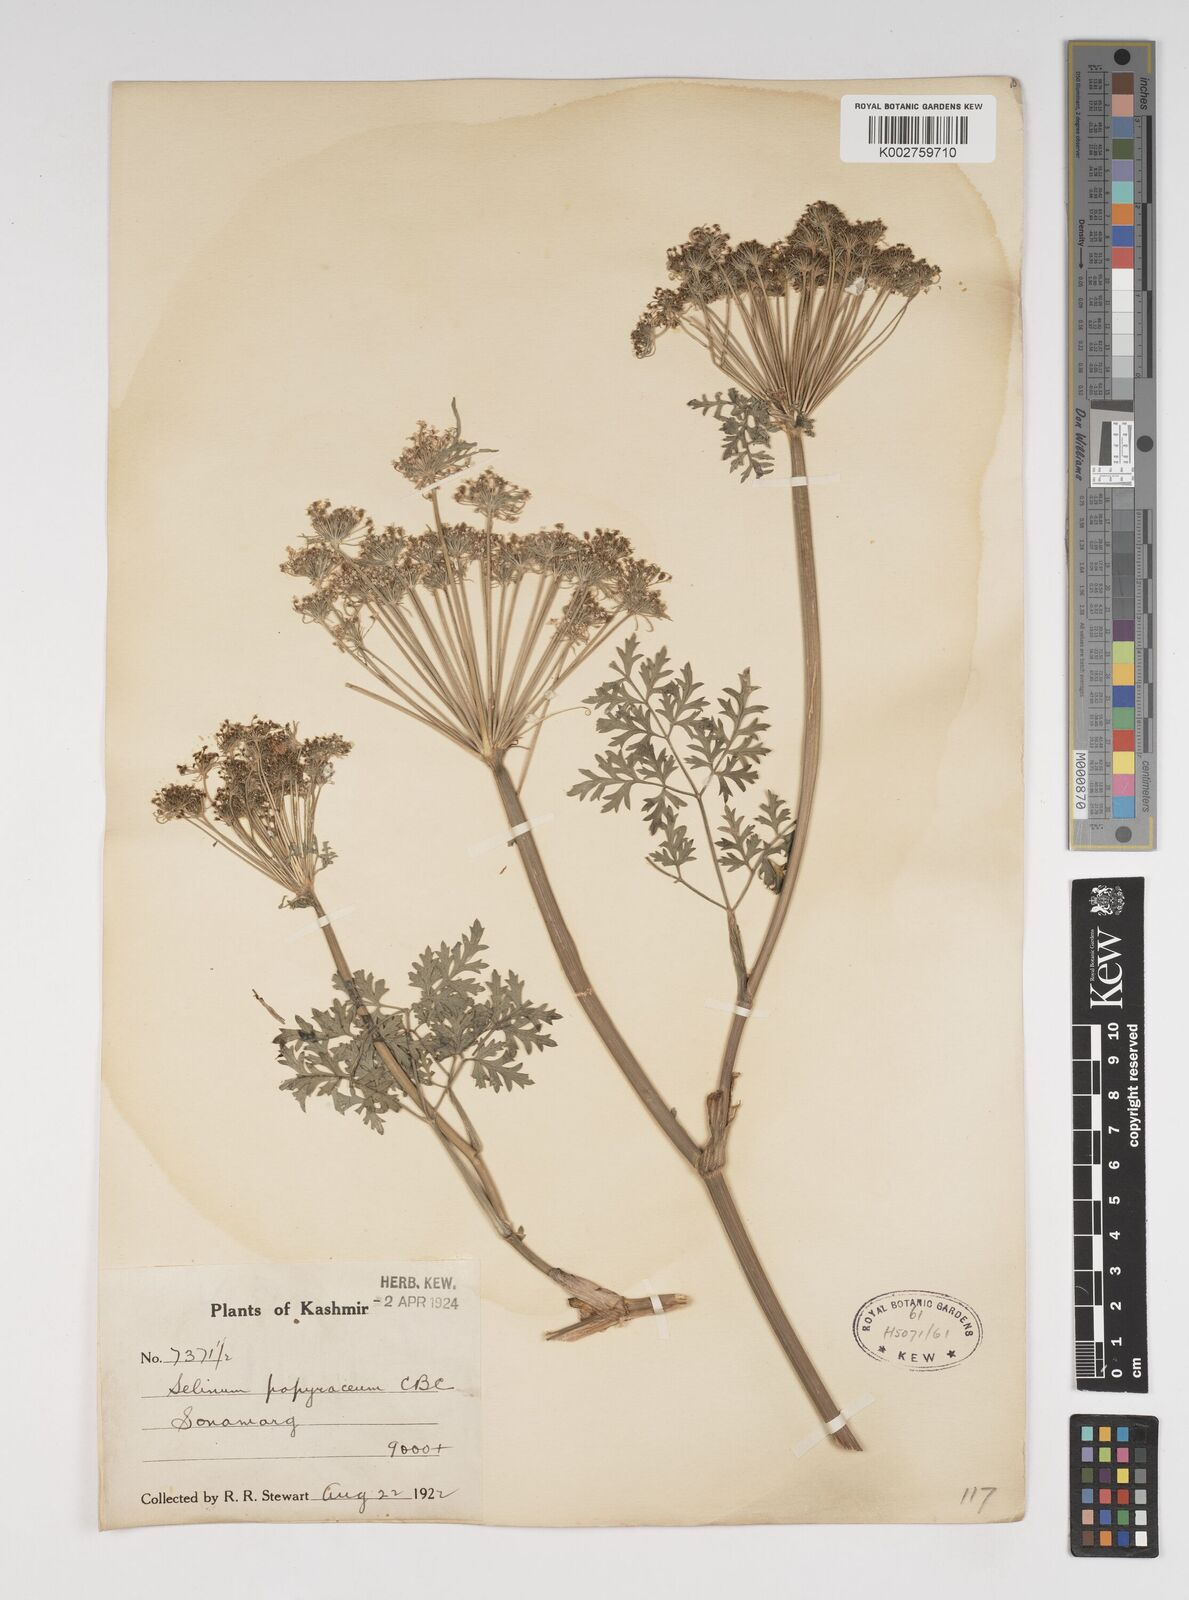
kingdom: Plantae
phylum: Tracheophyta
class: Magnoliopsida
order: Apiales
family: Apiaceae
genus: Conioselinum
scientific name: Conioselinum tataricum
